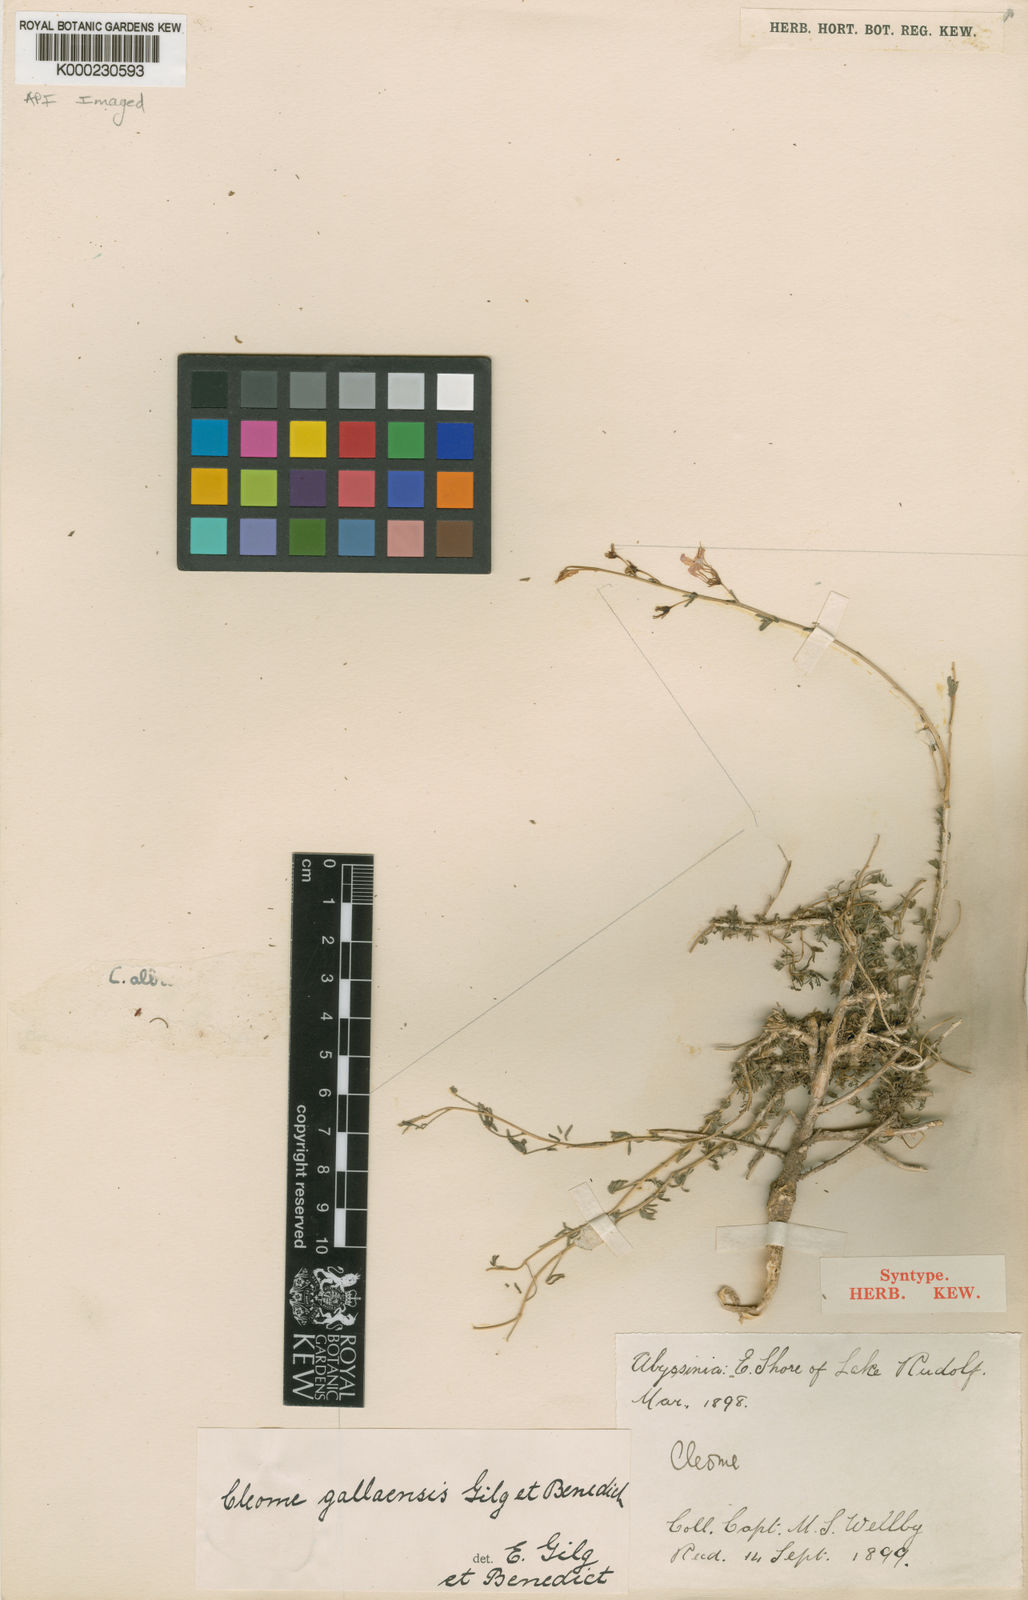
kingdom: Plantae
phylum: Tracheophyta
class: Magnoliopsida
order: Brassicales
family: Cleomaceae
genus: Sieruela
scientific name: Sieruela gallaensis
